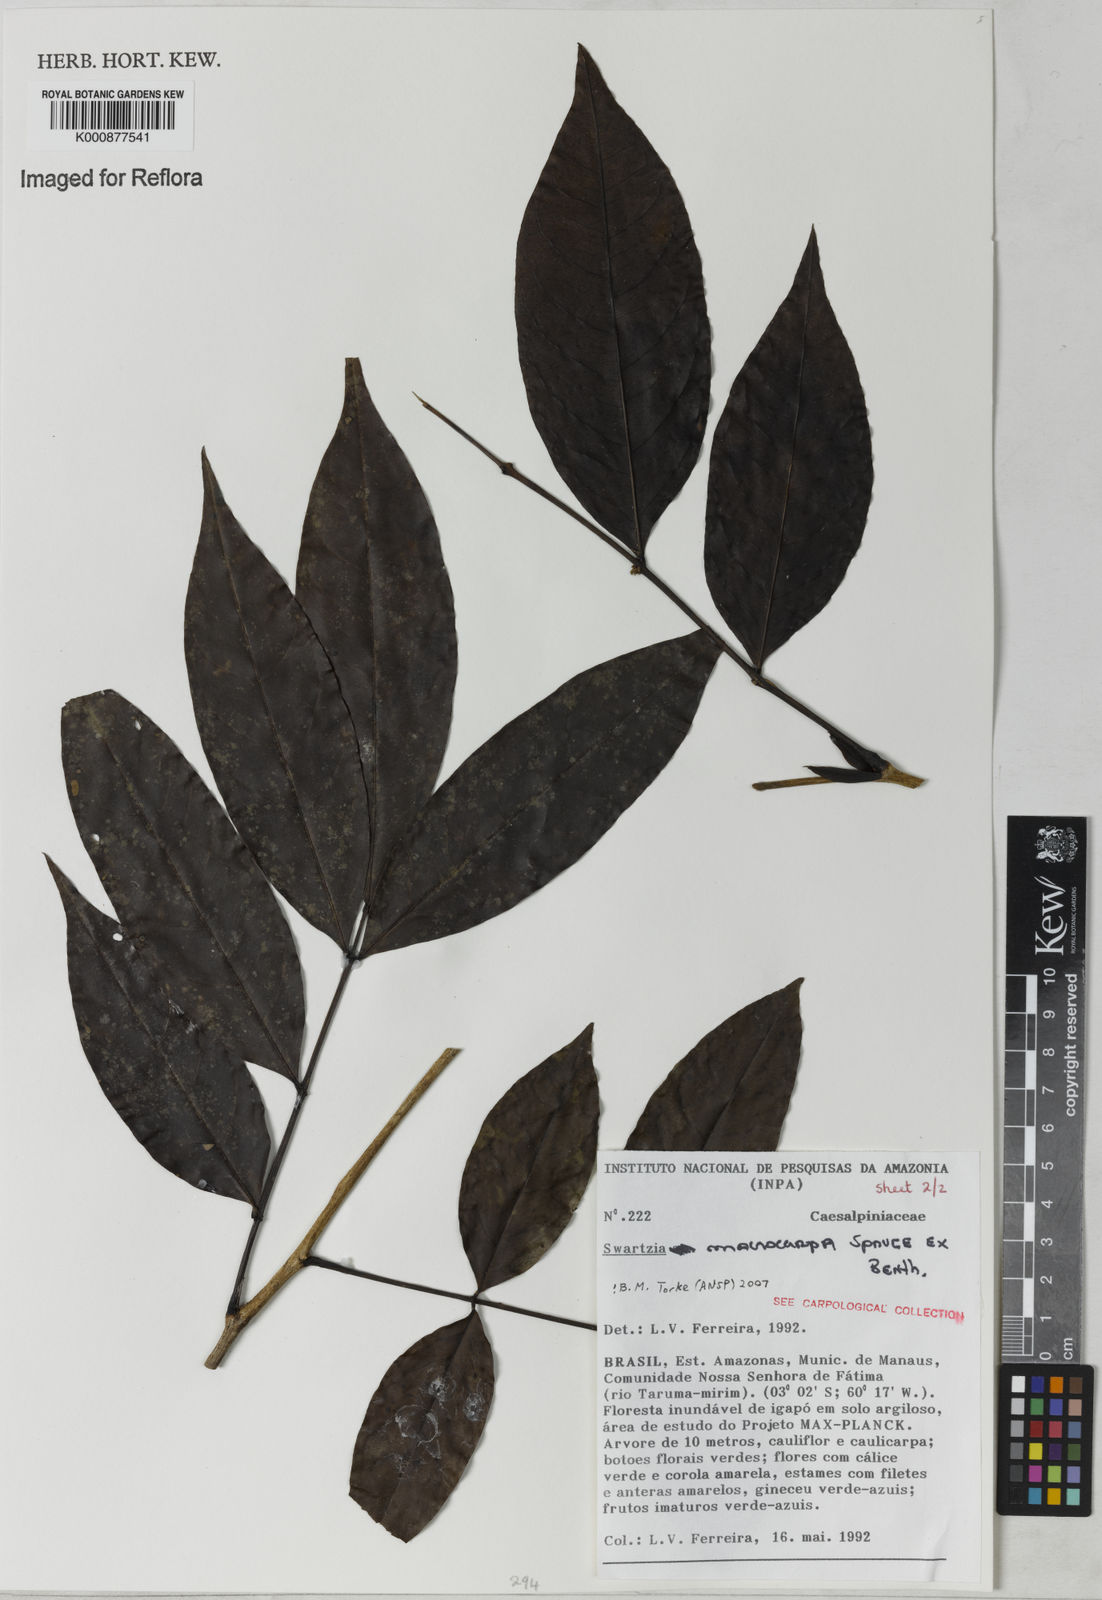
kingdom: Plantae
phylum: Tracheophyta
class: Magnoliopsida
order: Fabales
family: Fabaceae
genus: Swartzia
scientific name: Swartzia macrocarpa
